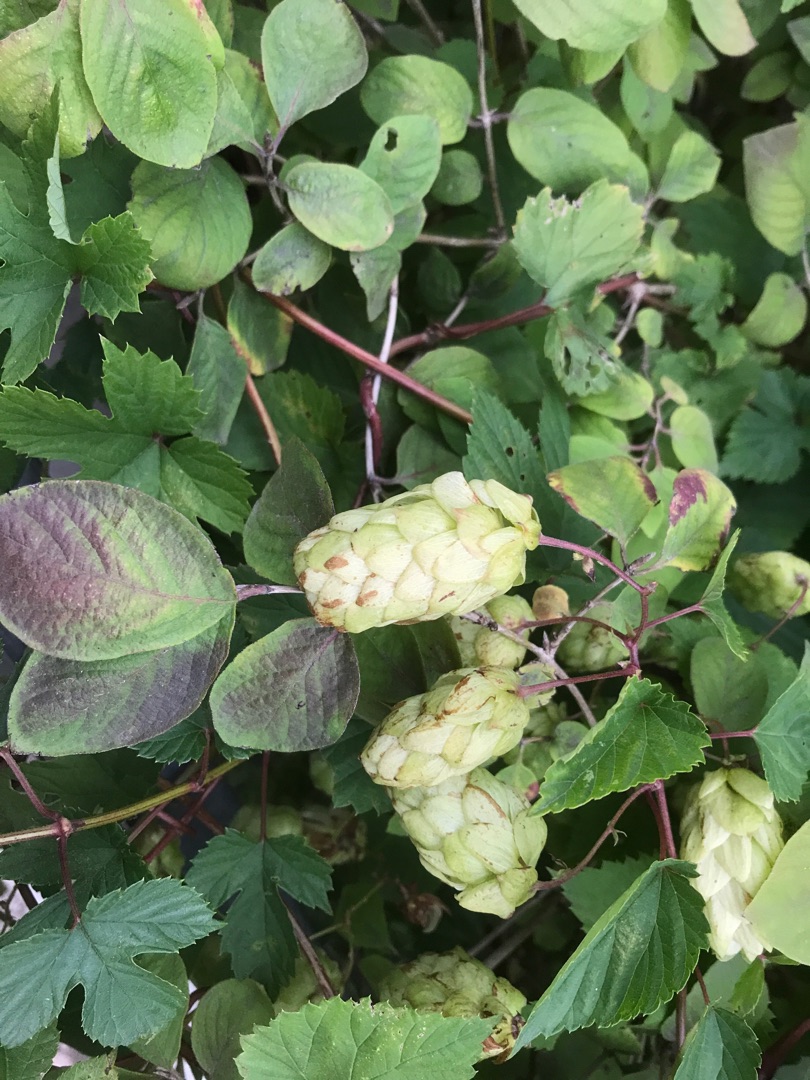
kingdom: Plantae
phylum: Tracheophyta
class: Magnoliopsida
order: Rosales
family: Cannabaceae
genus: Humulus
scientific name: Humulus lupulus
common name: Humle
